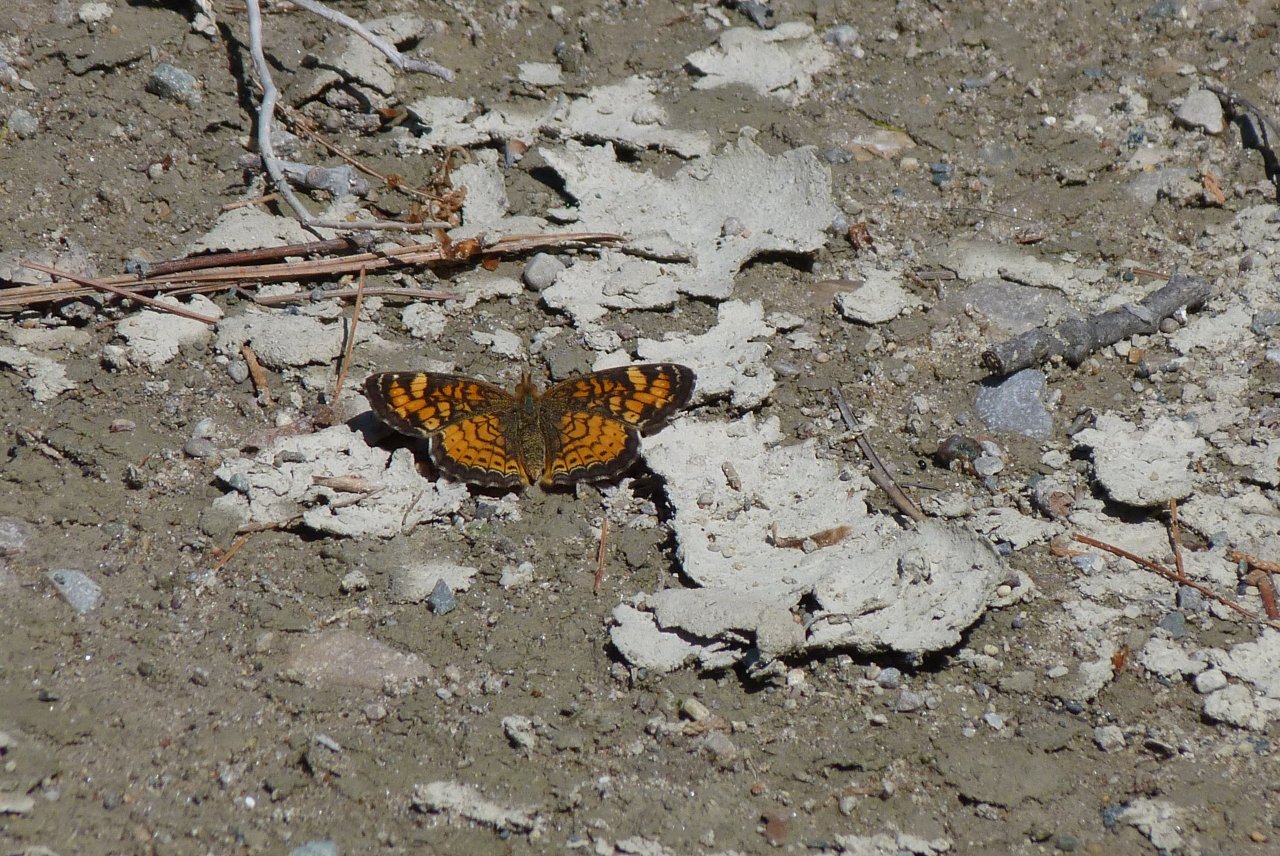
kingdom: Animalia
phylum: Arthropoda
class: Insecta
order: Lepidoptera
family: Nymphalidae
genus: Phyciodes
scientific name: Phyciodes tharos
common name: Pearl Crescent
